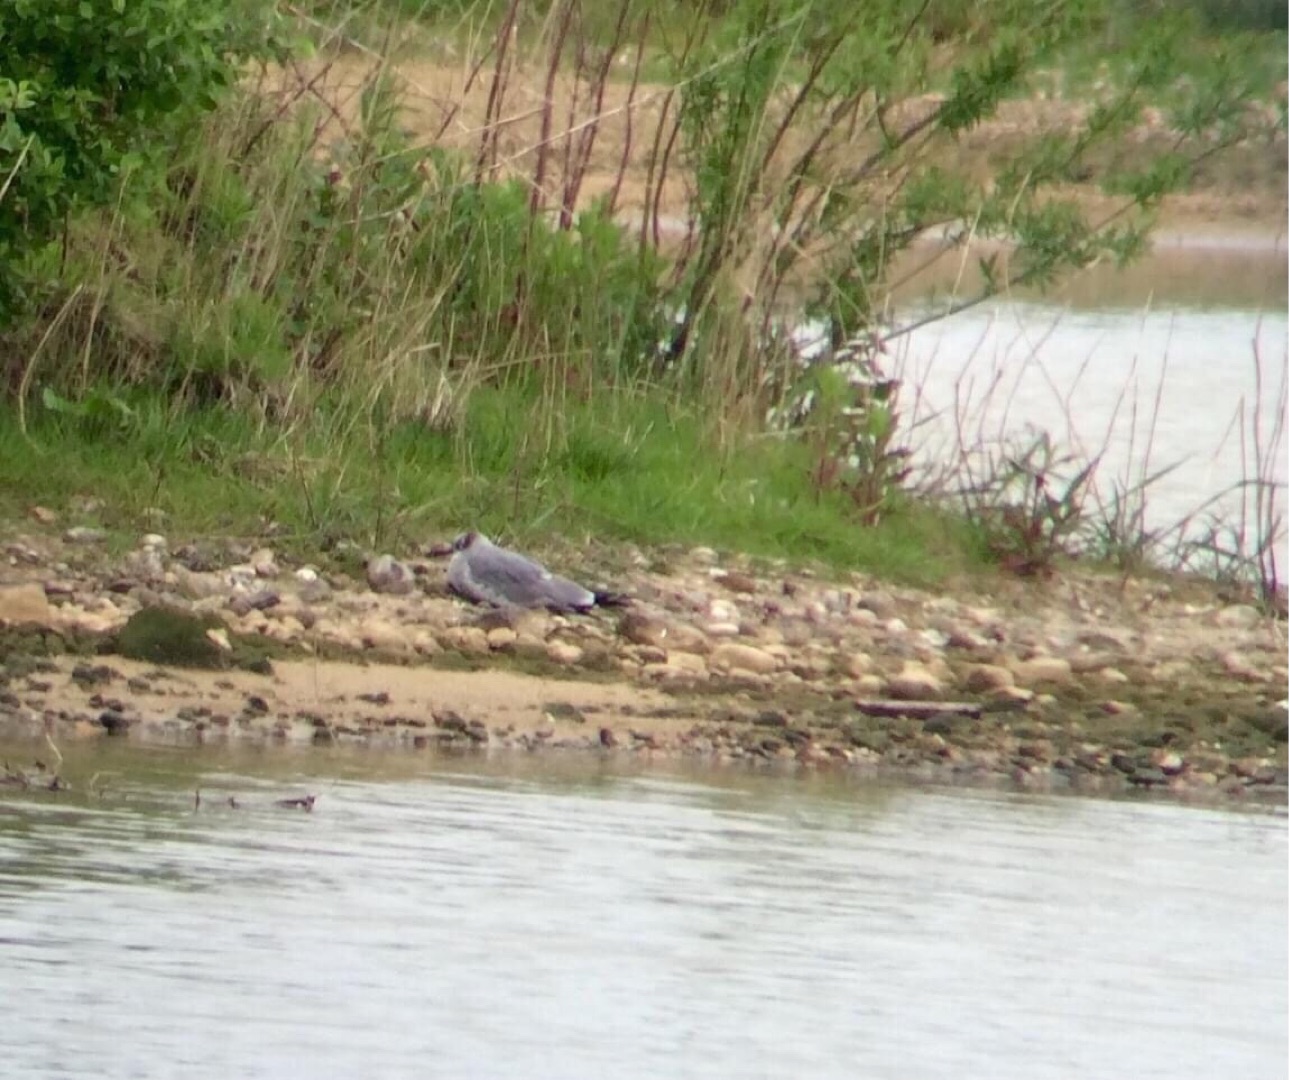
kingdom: Animalia
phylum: Chordata
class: Aves
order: Charadriiformes
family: Laridae
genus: Leucophaeus
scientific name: Leucophaeus atricilla
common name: Lattermåge
